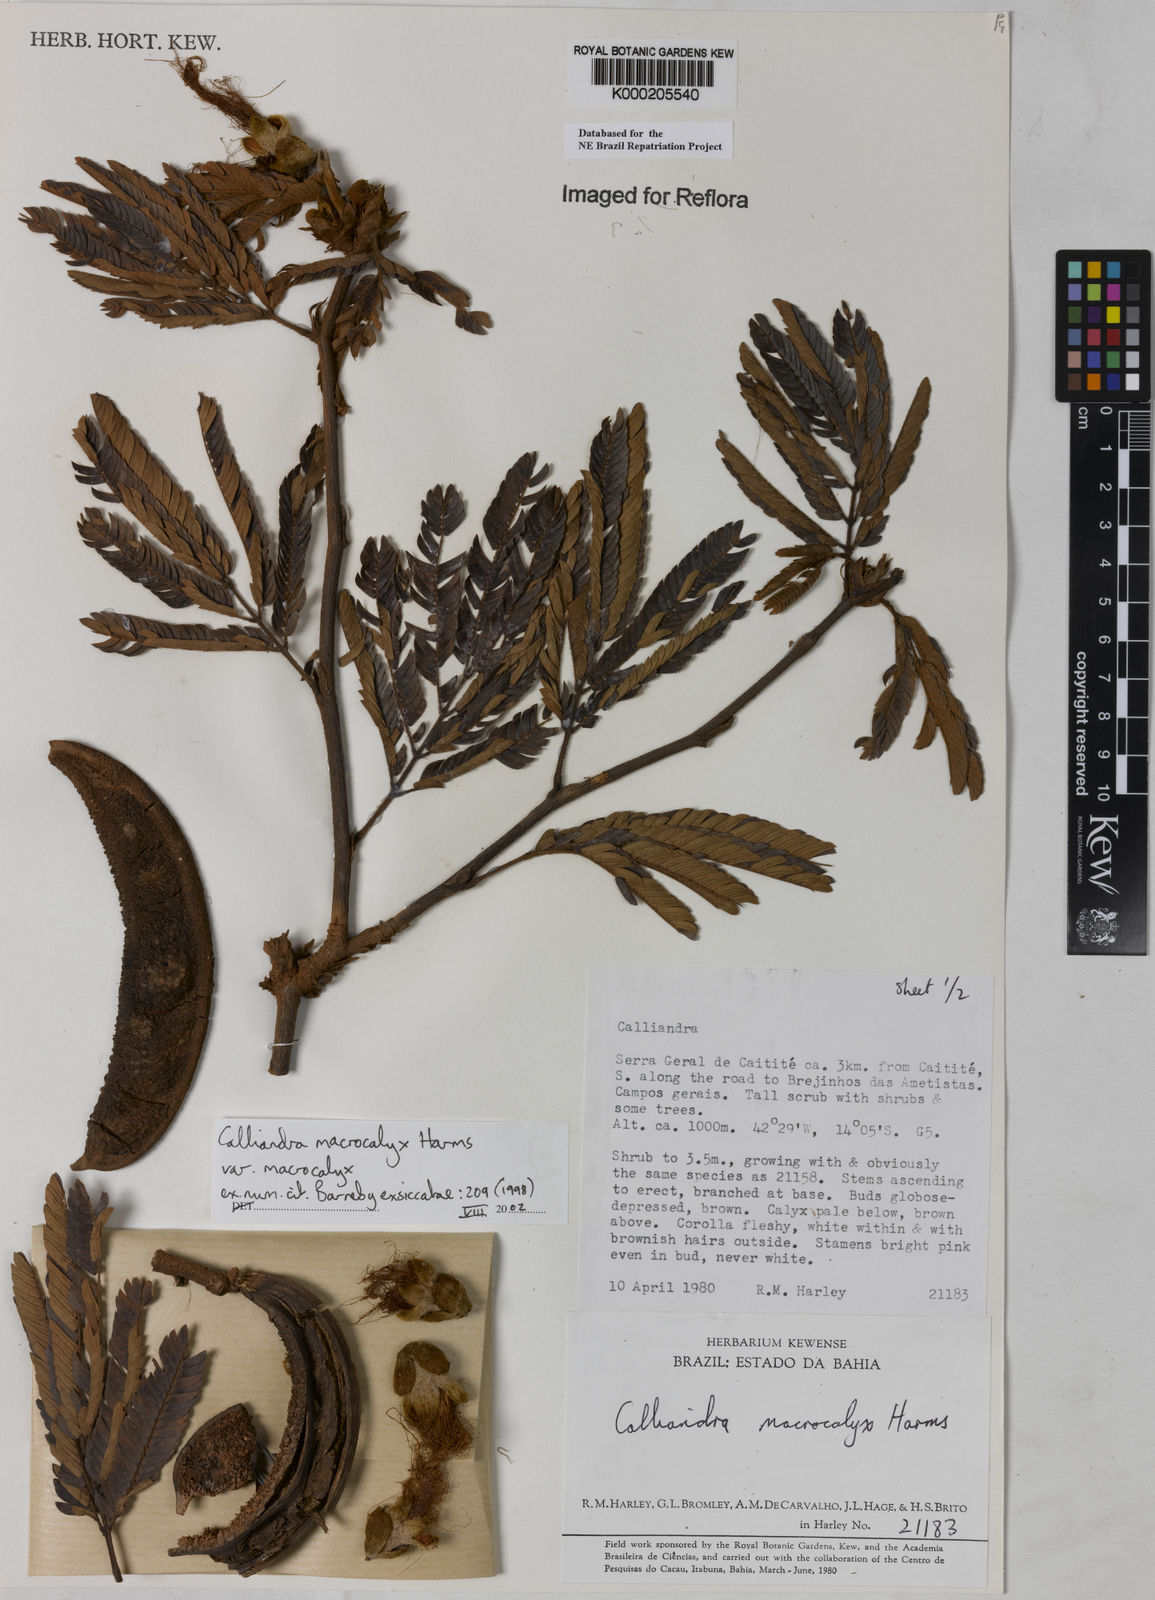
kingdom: Plantae
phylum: Tracheophyta
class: Magnoliopsida
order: Fabales
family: Fabaceae
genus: Calliandra
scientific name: Calliandra macrocalyx
